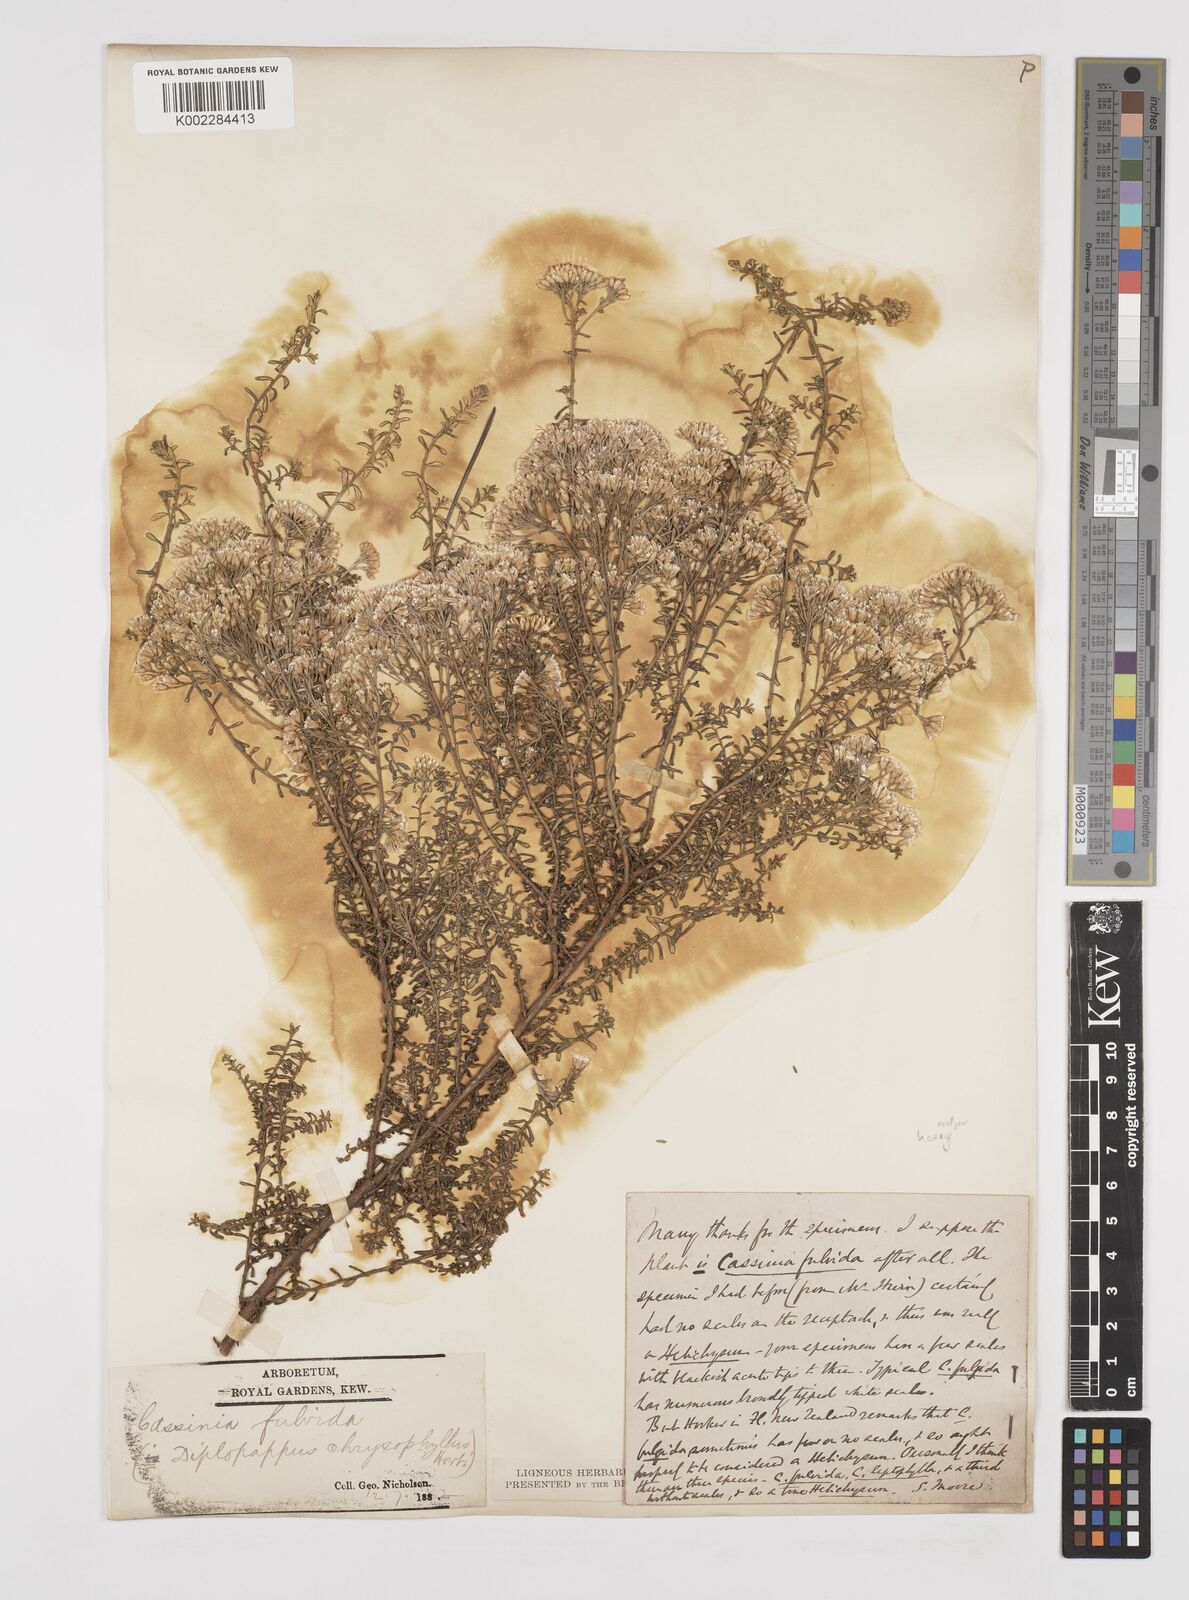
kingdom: Plantae
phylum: Tracheophyta
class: Magnoliopsida
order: Asterales
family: Asteraceae
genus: Ozothamnus
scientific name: Ozothamnus leptophyllus
